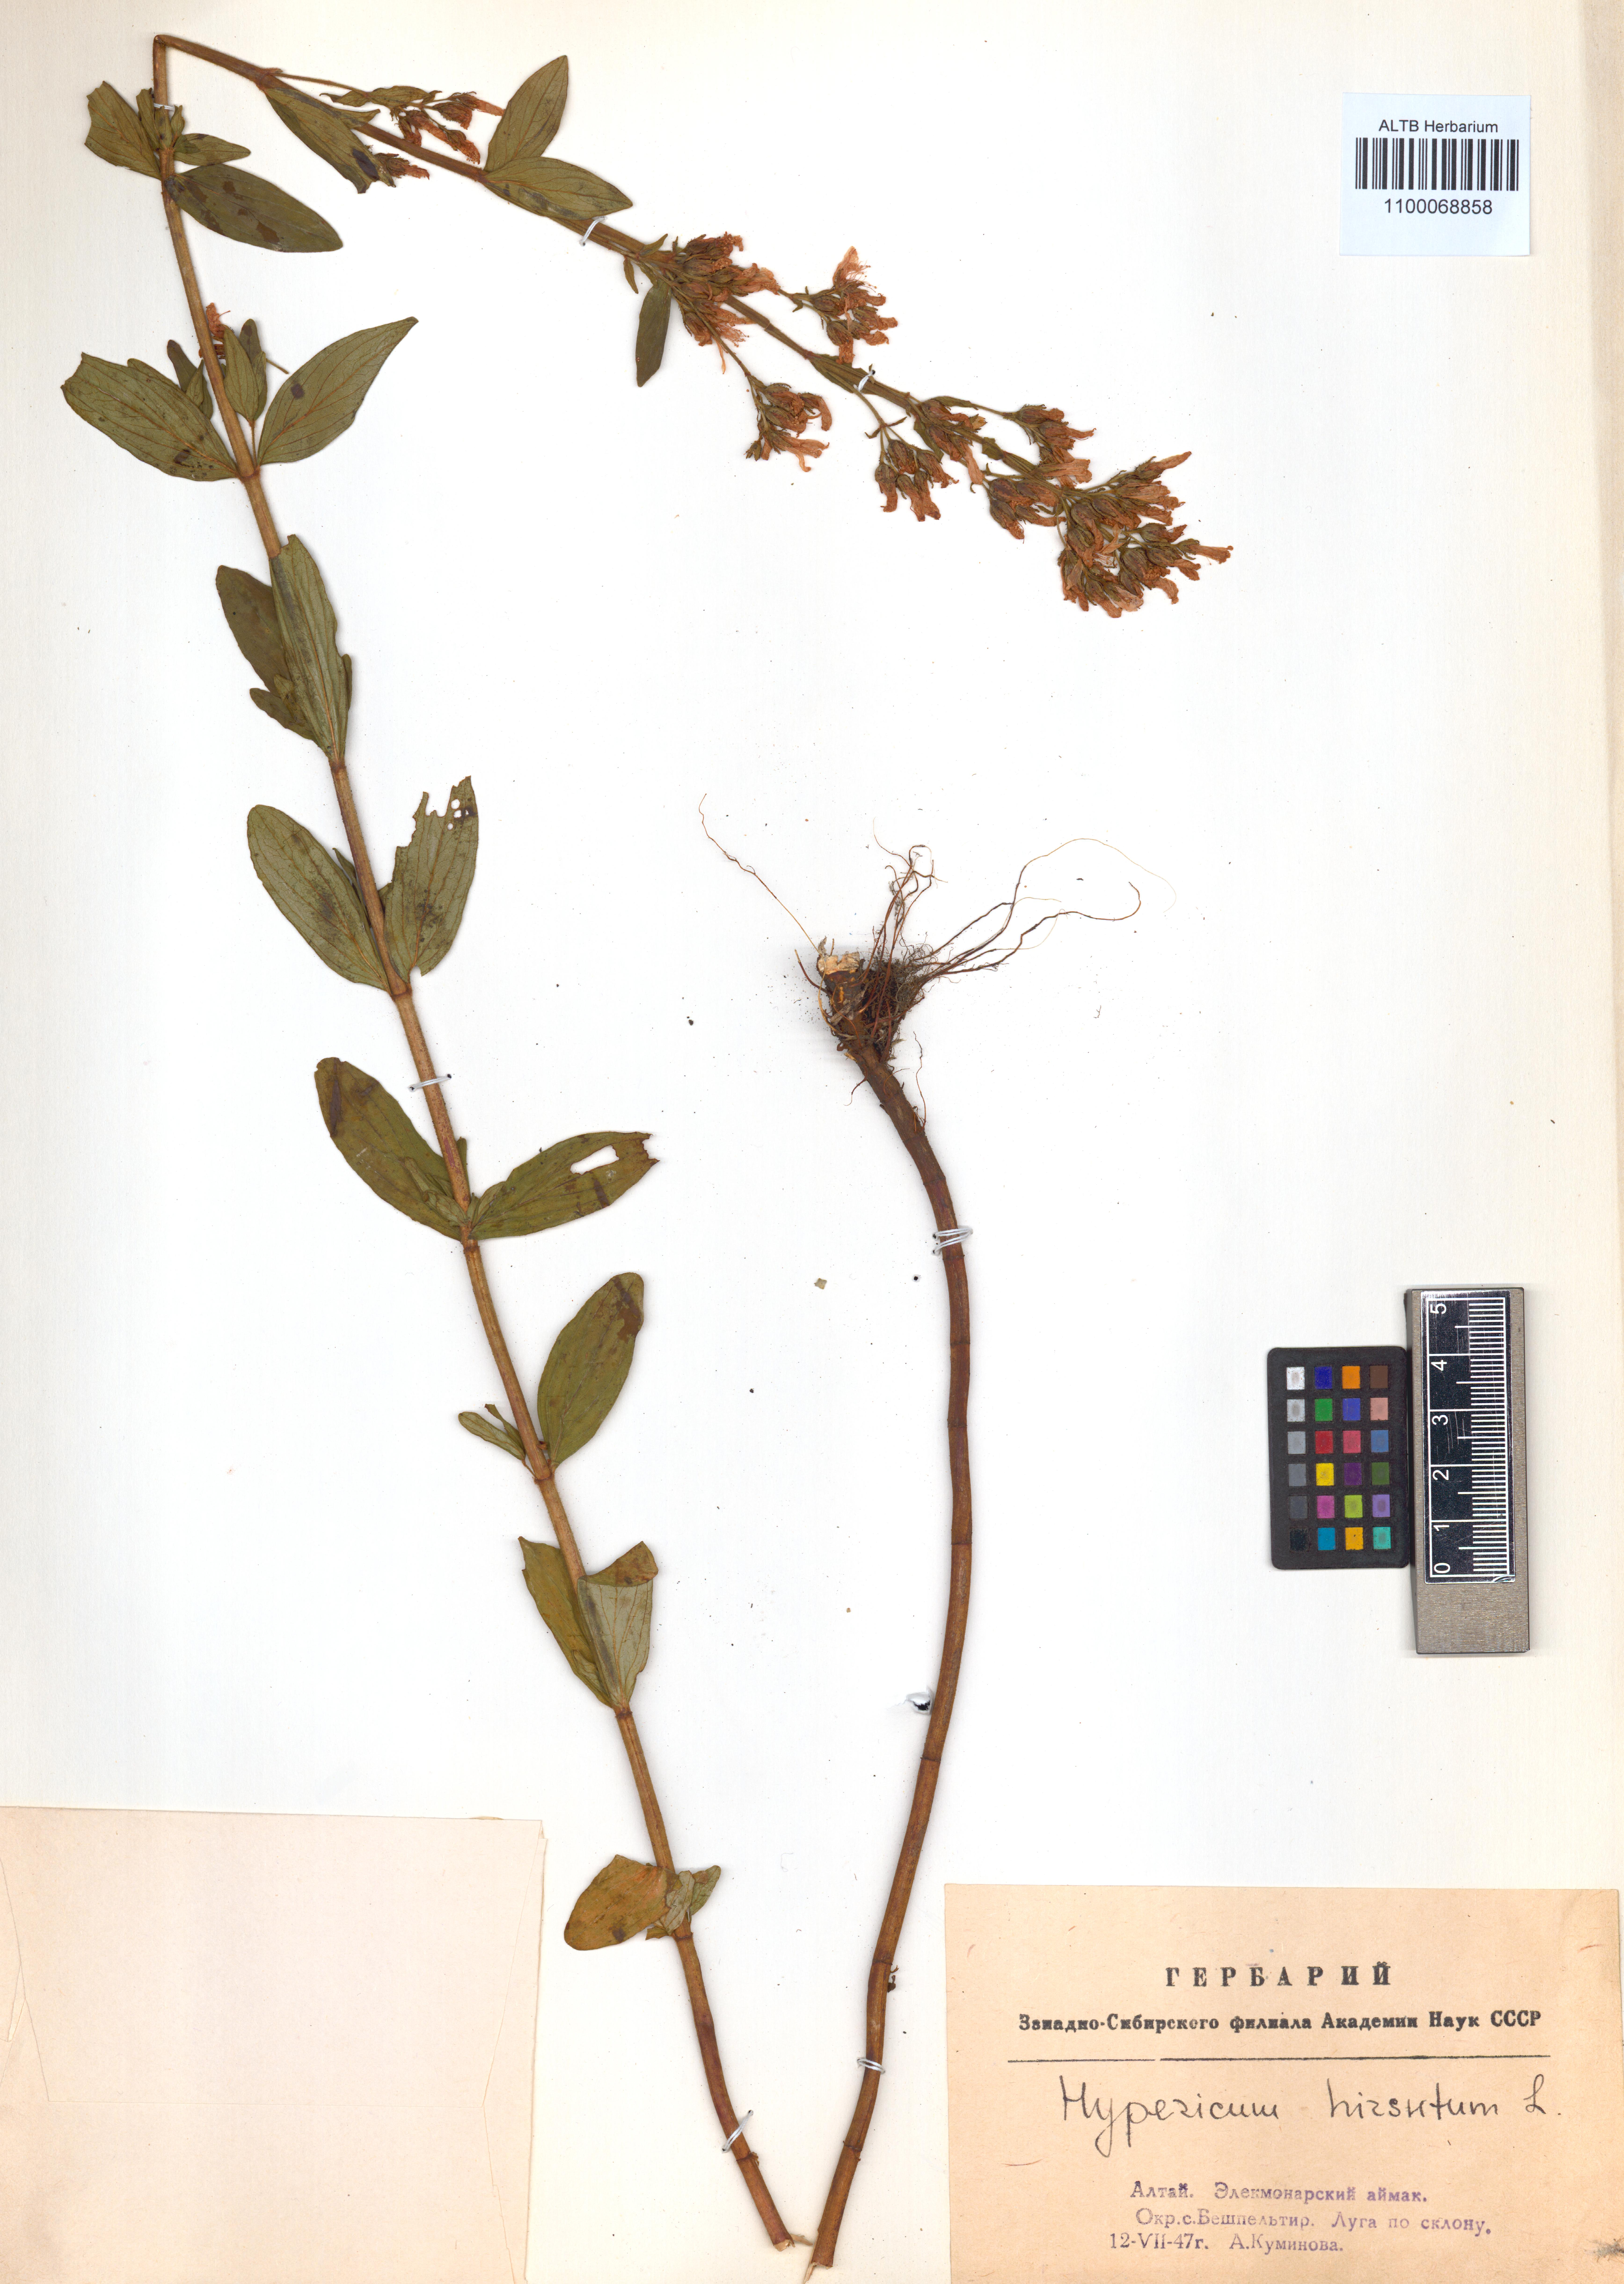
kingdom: Plantae
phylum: Tracheophyta
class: Magnoliopsida
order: Malpighiales
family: Hypericaceae
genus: Hypericum
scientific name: Hypericum hirsutum
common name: Hairy st. john's-wort
